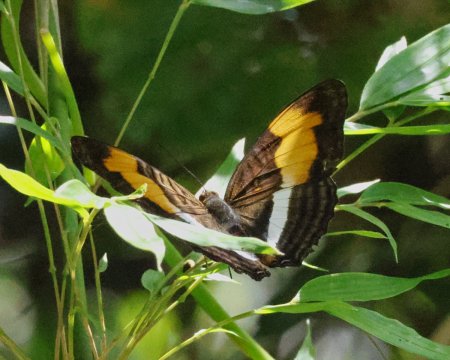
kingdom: Animalia
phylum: Arthropoda
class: Insecta
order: Lepidoptera
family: Nymphalidae
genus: Limenitis
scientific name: Limenitis melona
